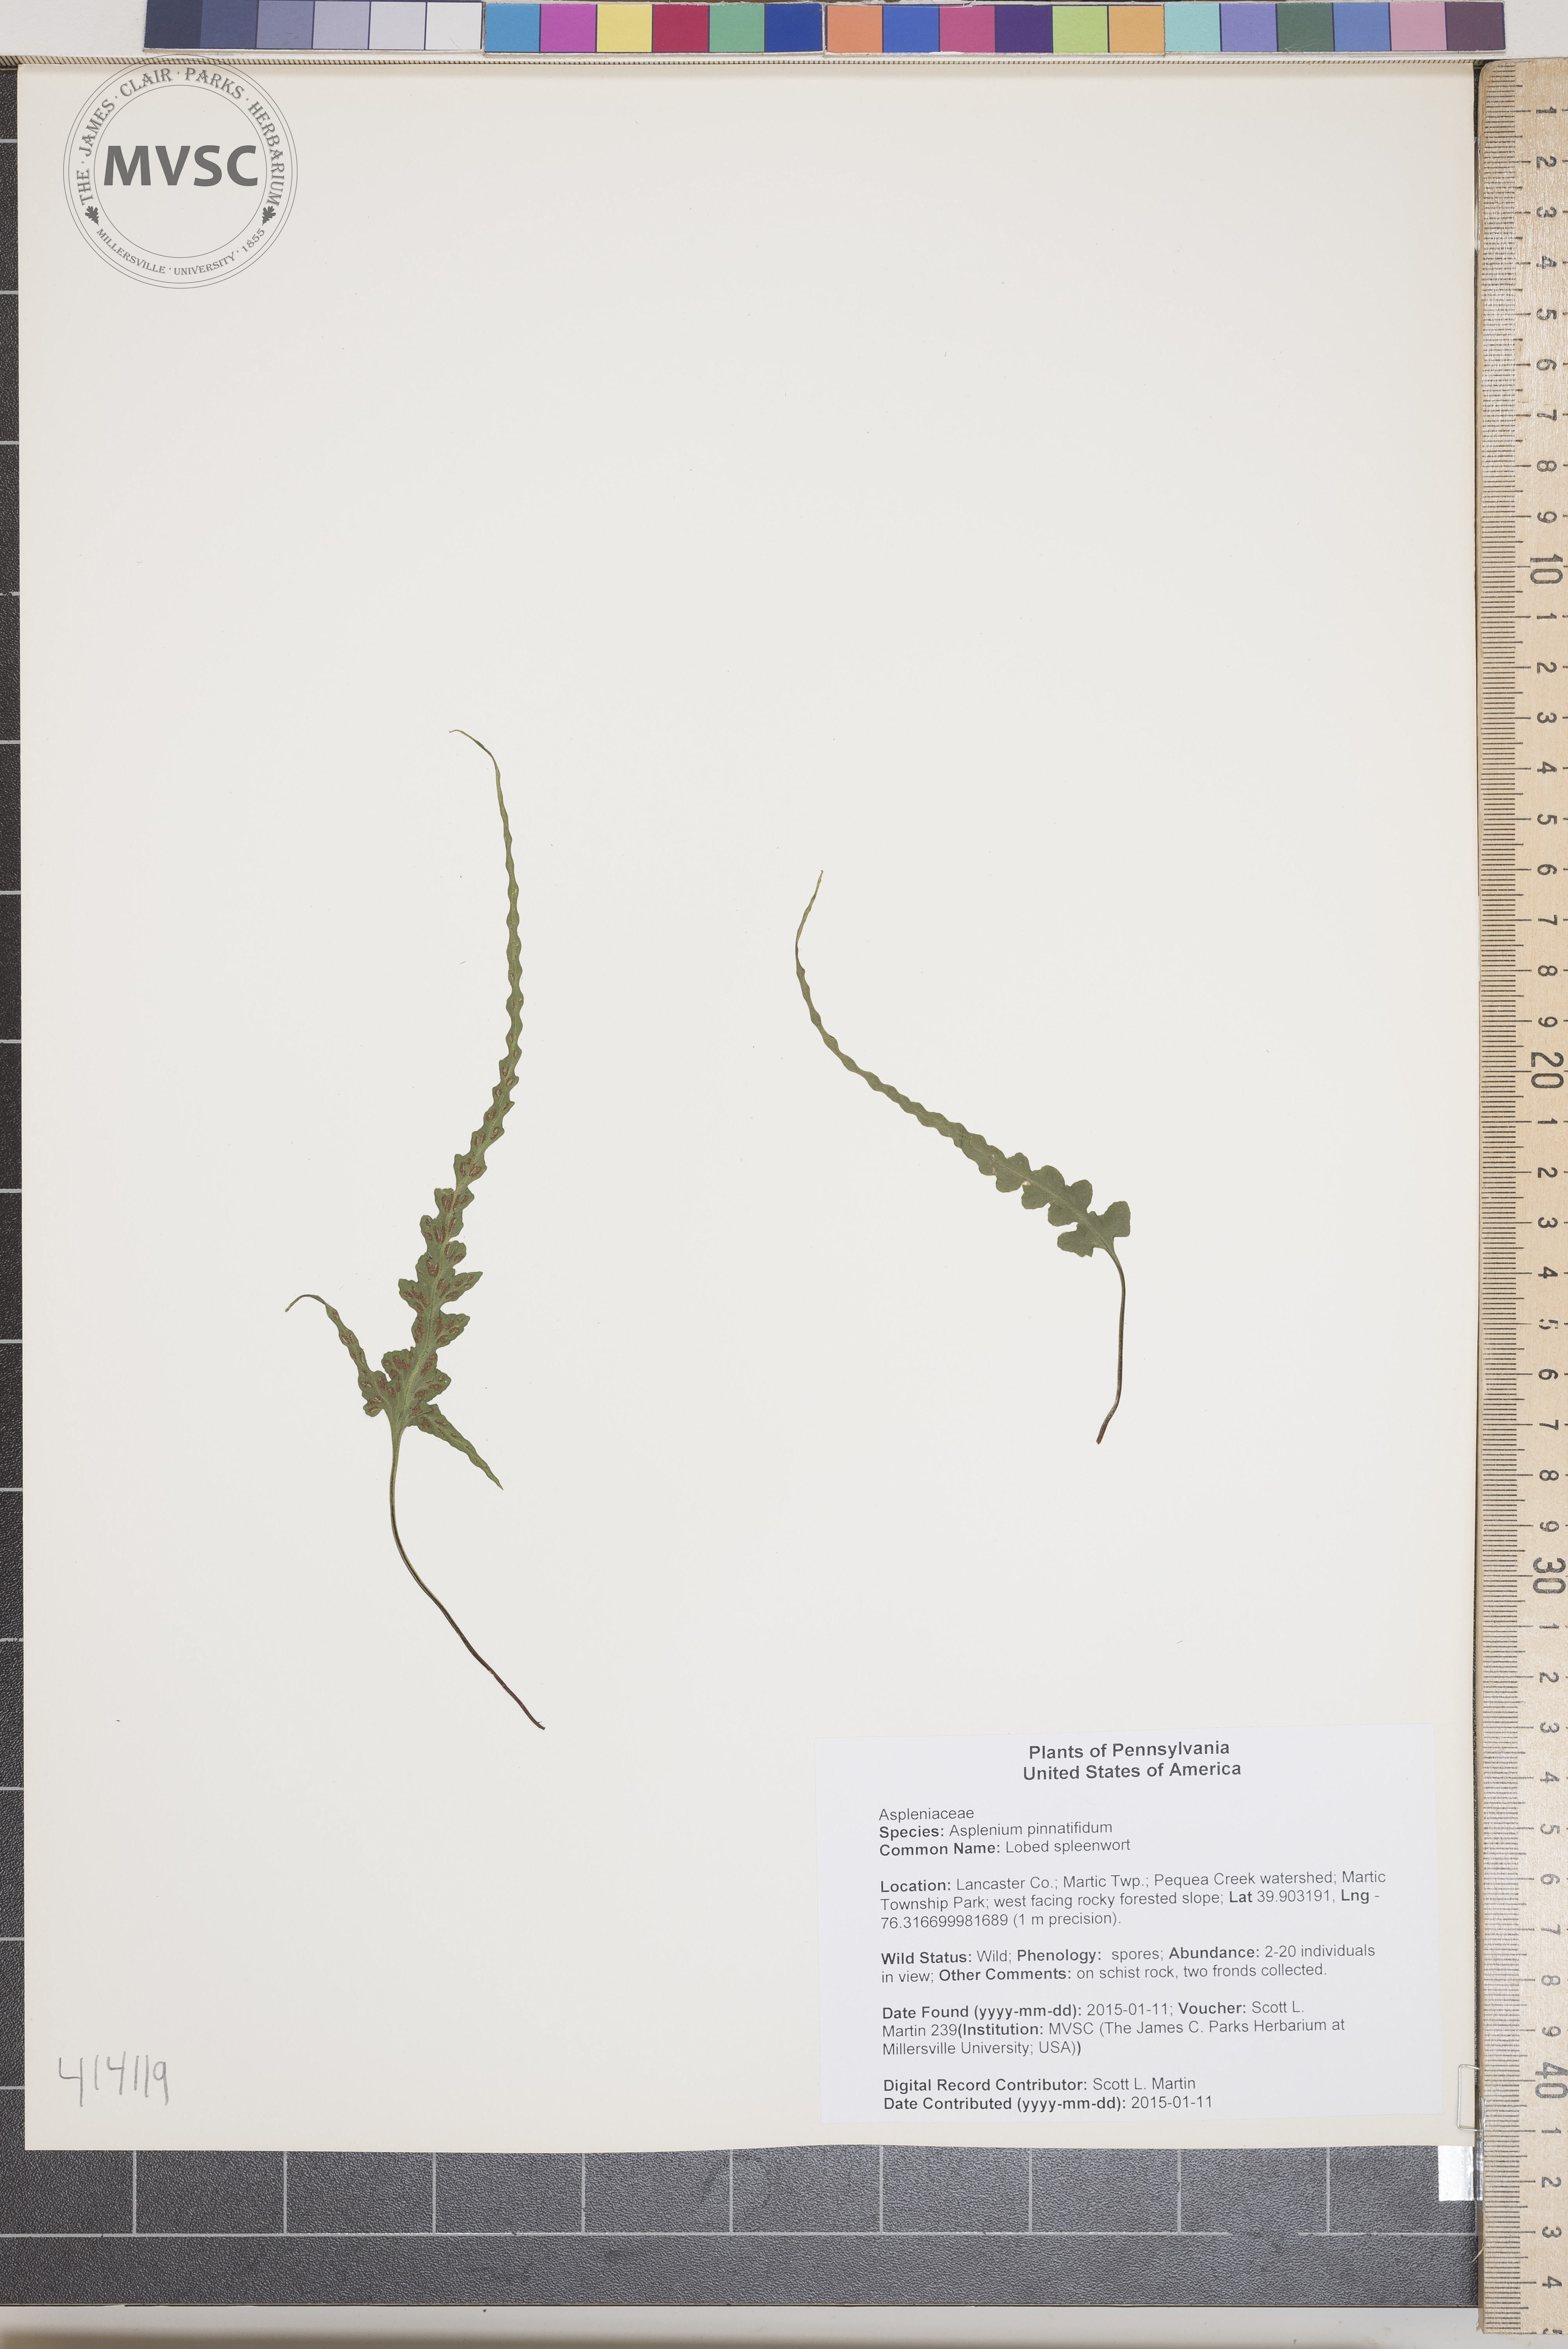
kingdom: Plantae
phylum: Tracheophyta
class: Polypodiopsida
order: Polypodiales
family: Aspleniaceae
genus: Asplenium
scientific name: Asplenium pinnatifidum
